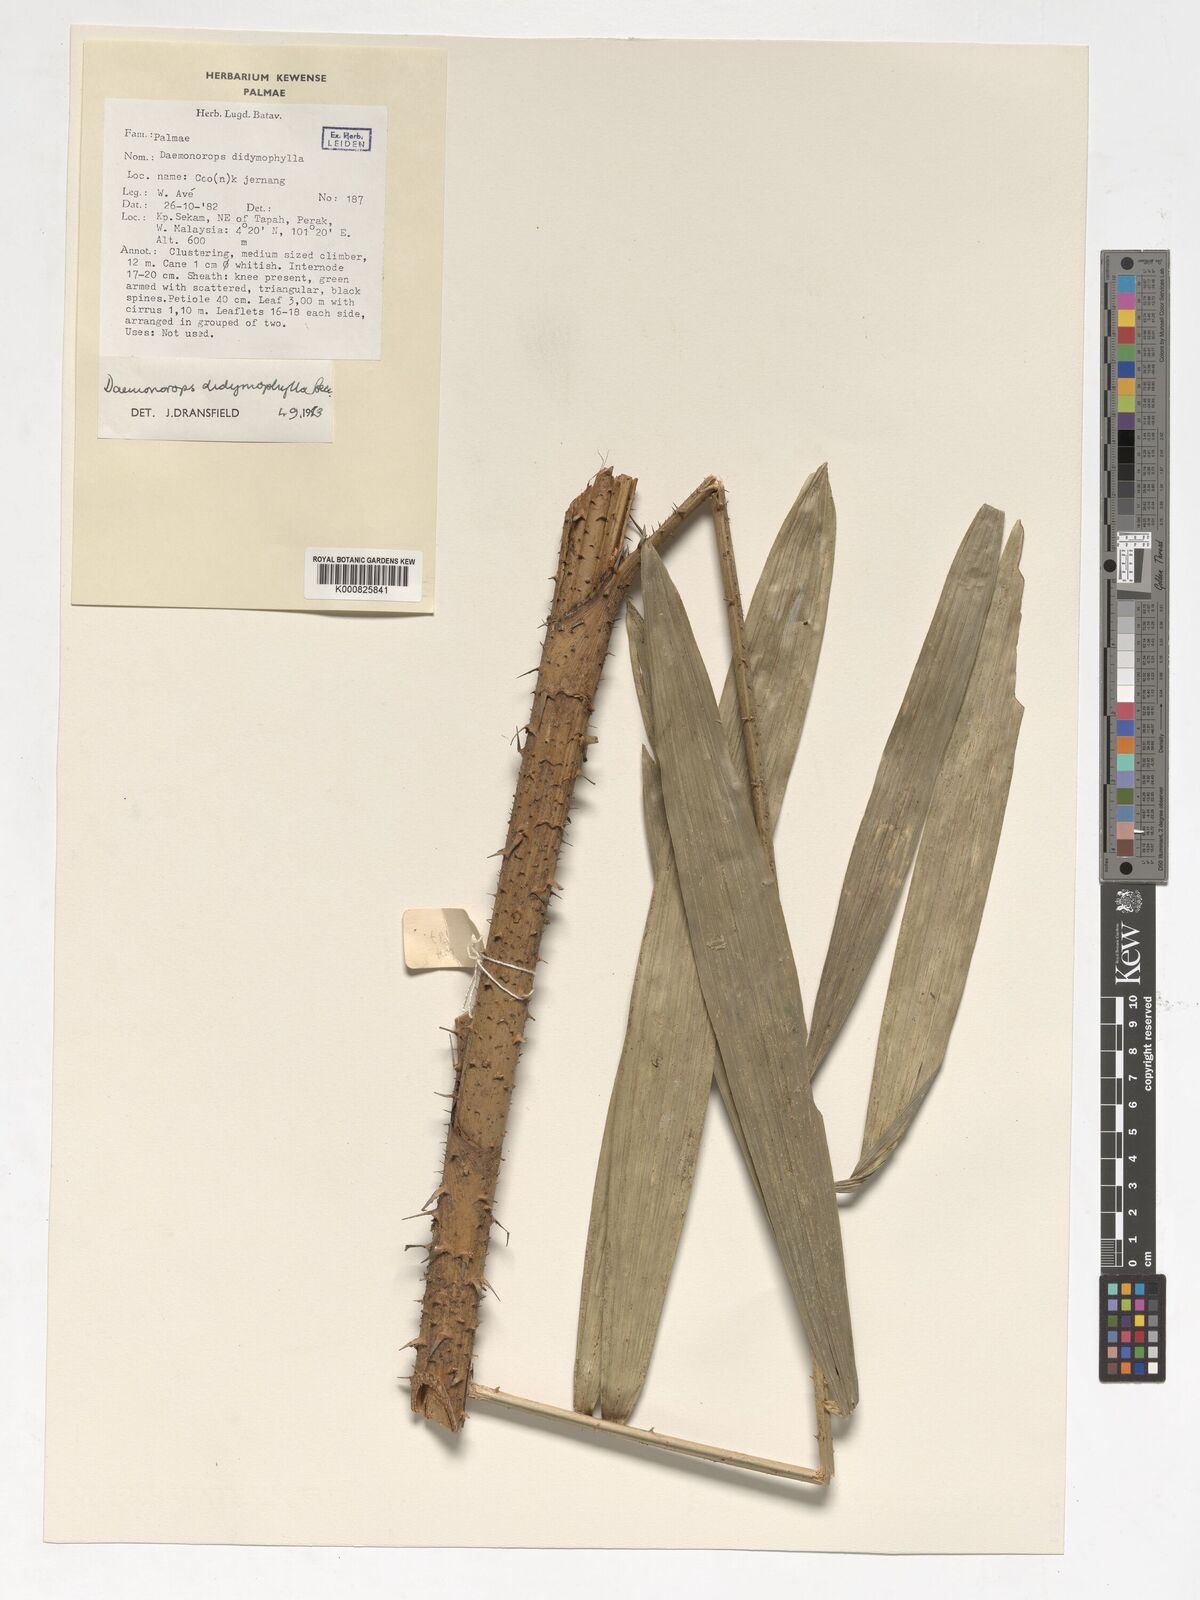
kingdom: Plantae
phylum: Tracheophyta
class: Liliopsida
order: Arecales
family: Arecaceae
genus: Calamus
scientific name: Calamus gracilipes
